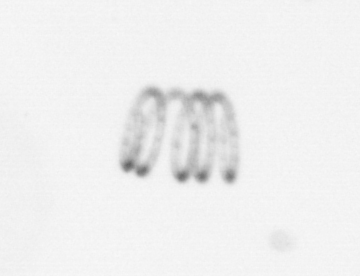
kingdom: Chromista
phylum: Ochrophyta
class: Bacillariophyceae
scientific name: Bacillariophyceae
